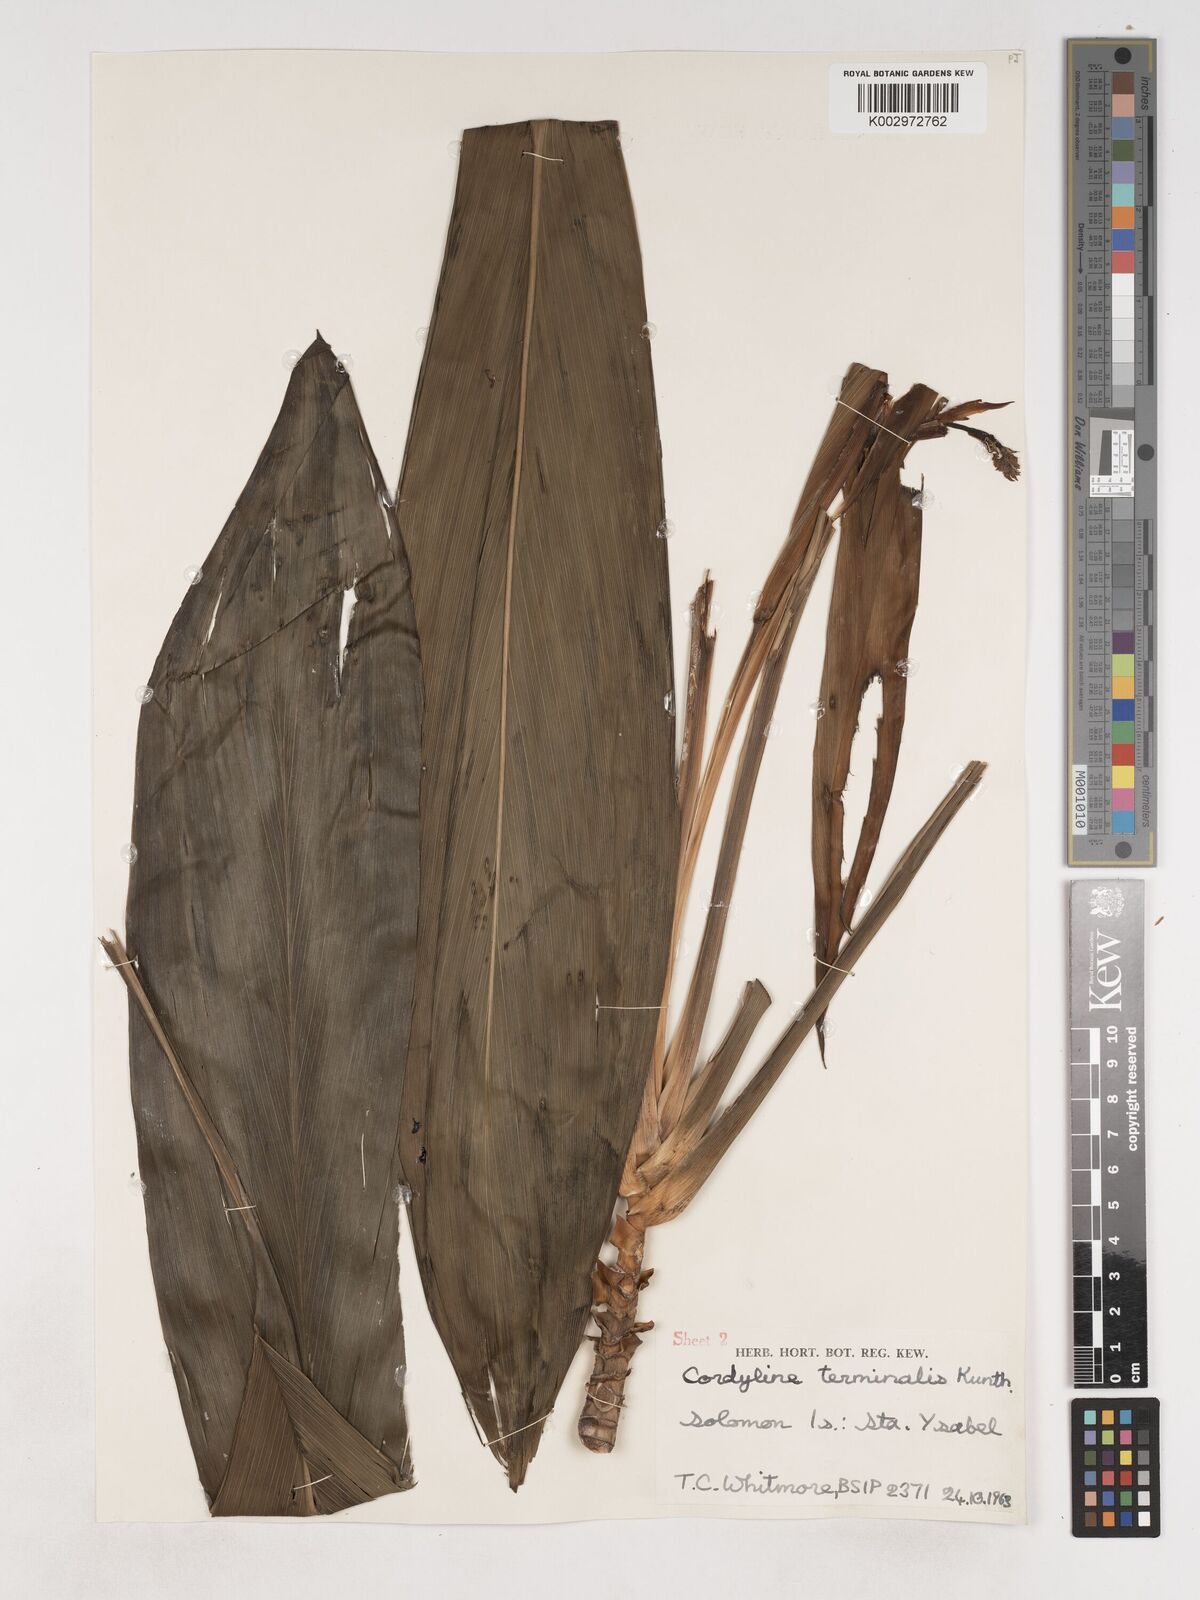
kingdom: Plantae
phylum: Tracheophyta
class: Liliopsida
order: Asparagales
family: Asparagaceae
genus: Cordyline
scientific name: Cordyline fruticosa
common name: Good-luck-plant
